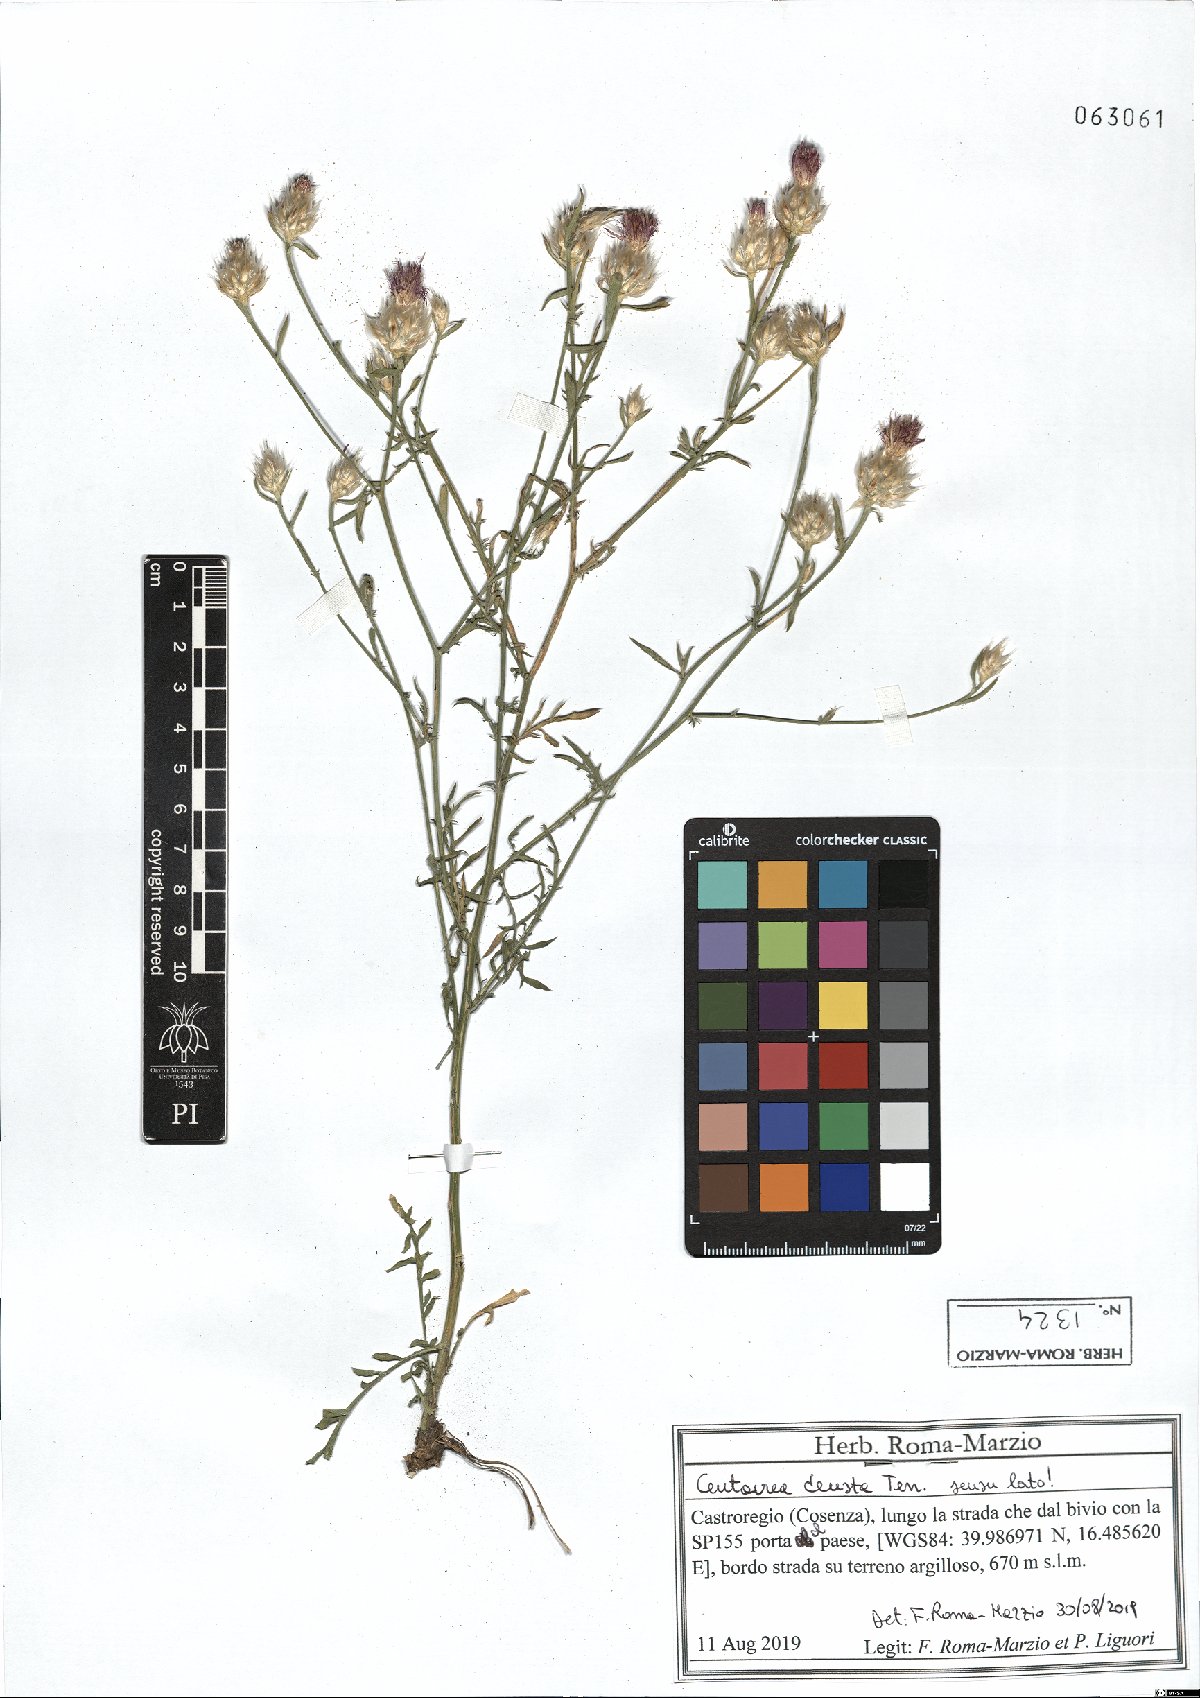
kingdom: Plantae
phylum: Tracheophyta
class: Magnoliopsida
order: Asterales
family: Asteraceae
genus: Centaurea
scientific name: Centaurea deusta
